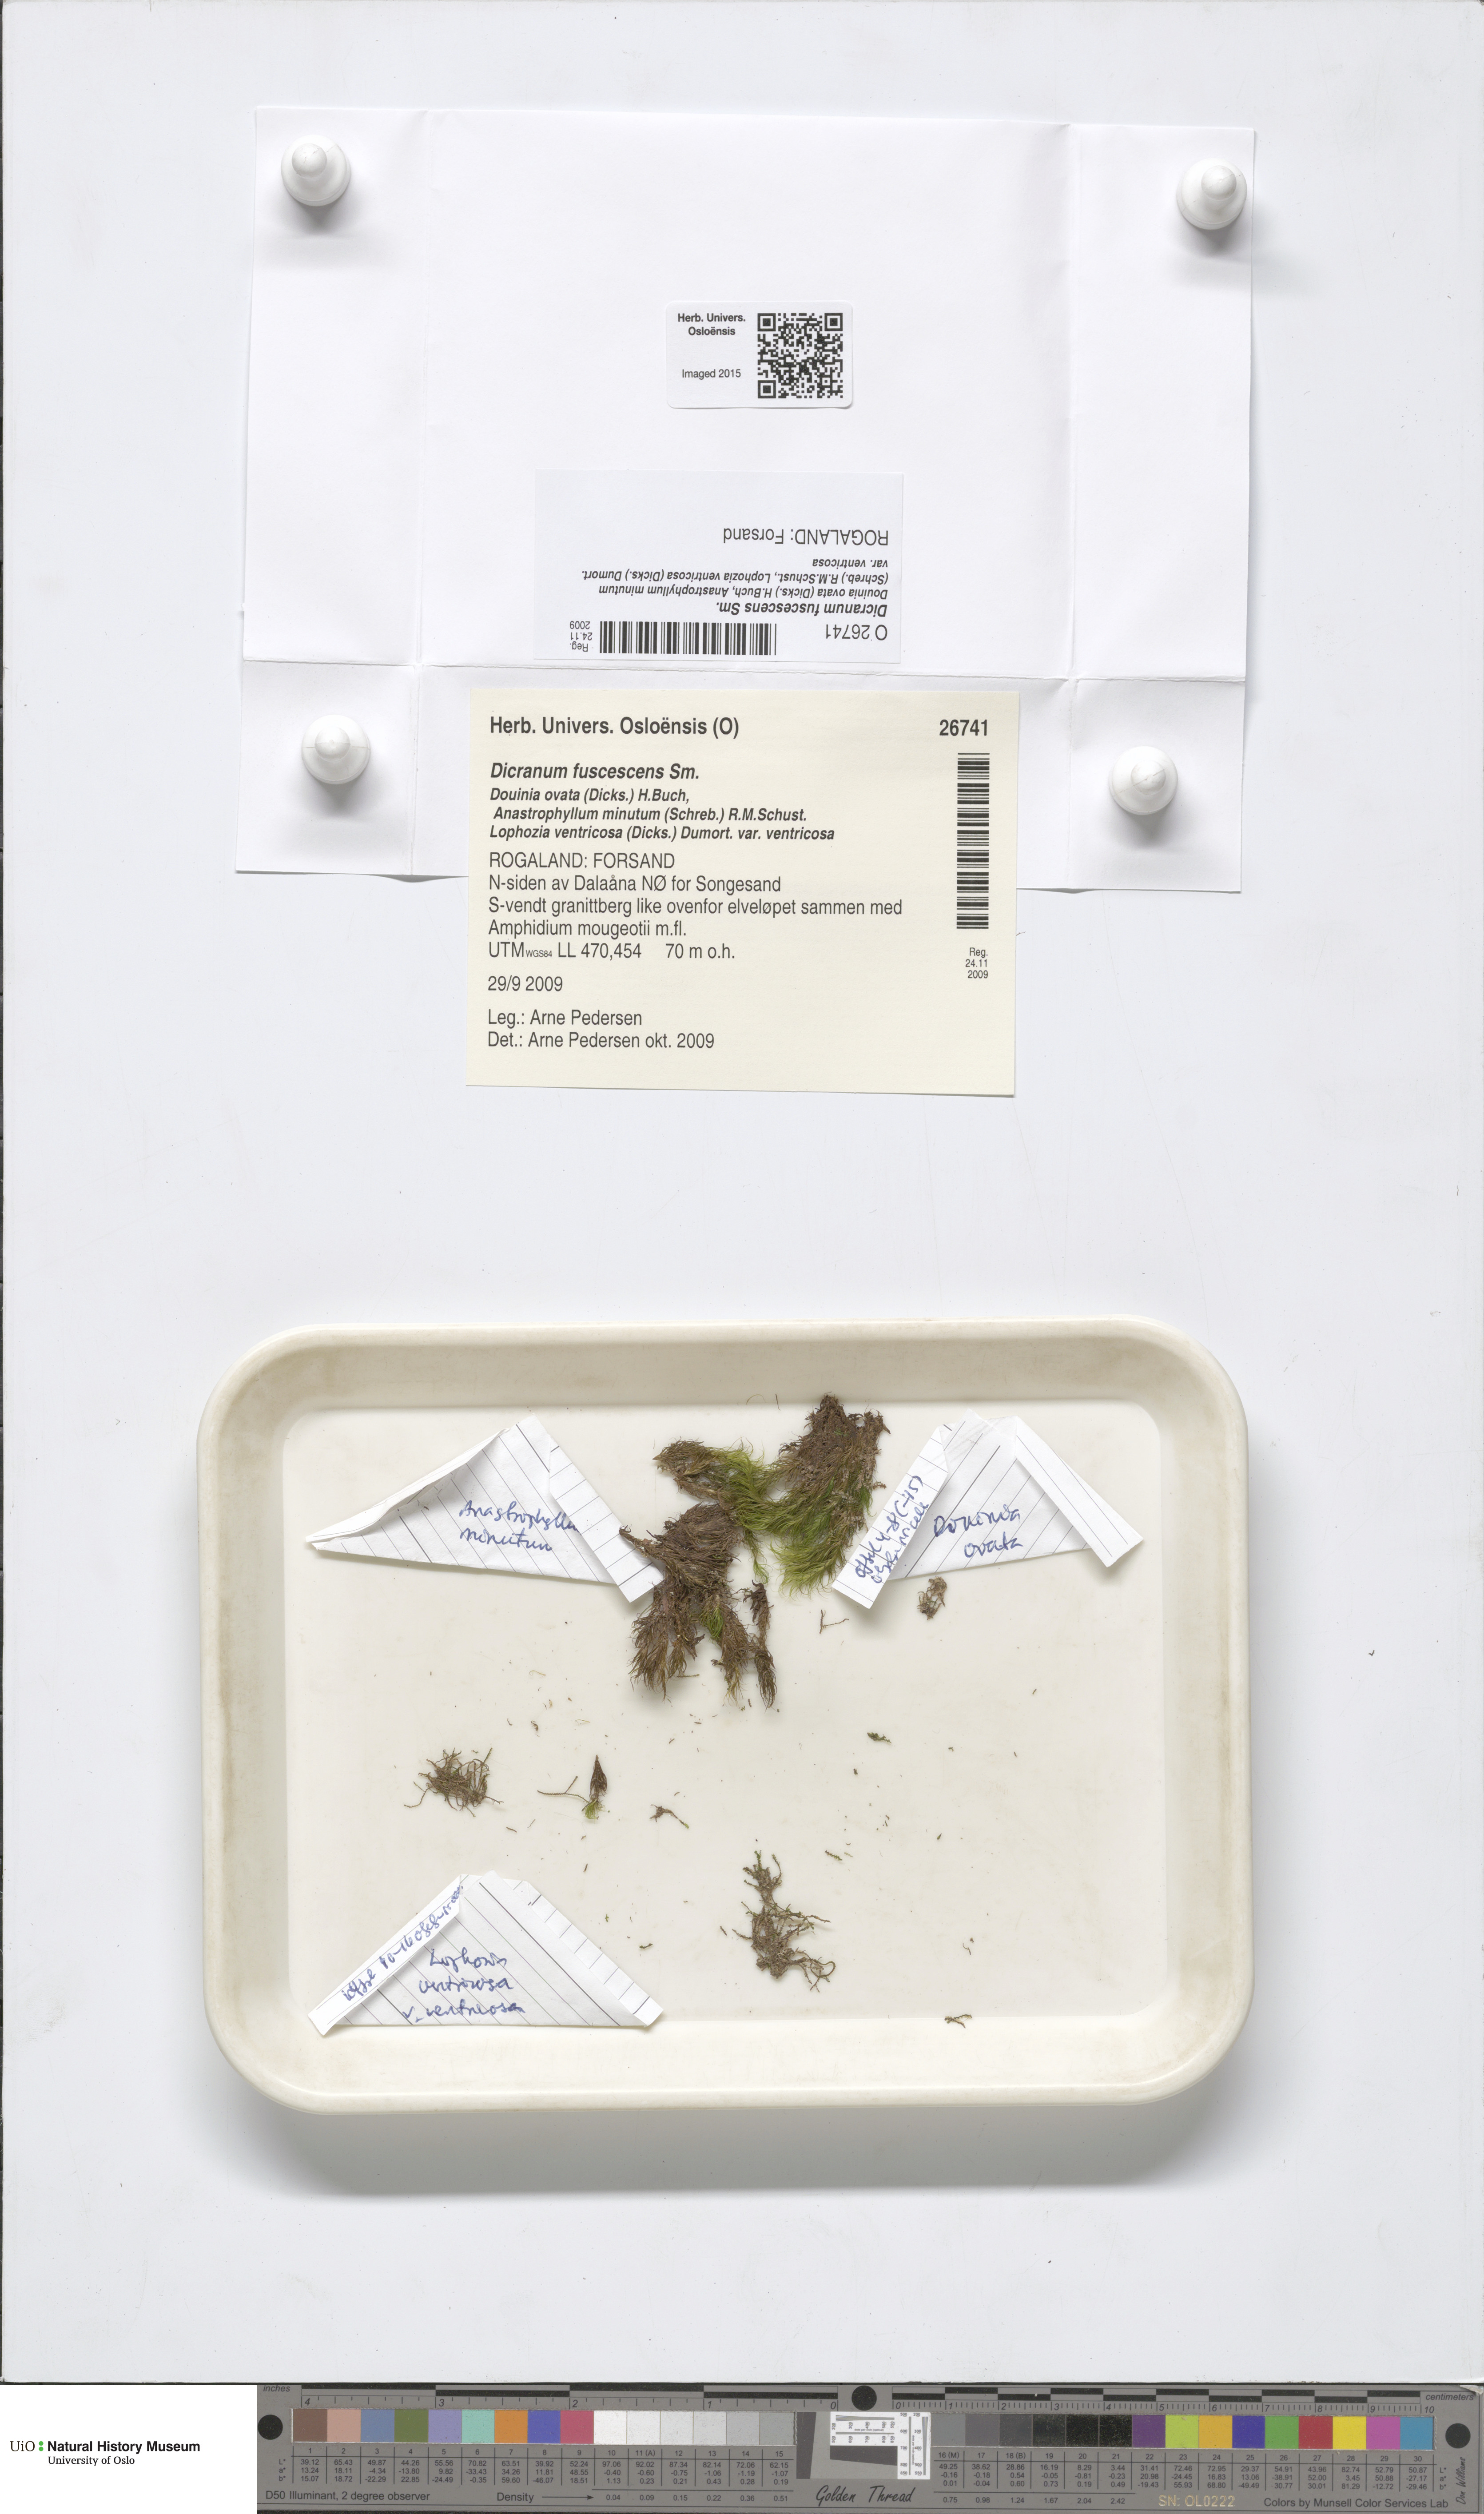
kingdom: Plantae
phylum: Bryophyta
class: Bryopsida
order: Dicranales
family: Dicranaceae
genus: Dicranum
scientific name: Dicranum fuscescens
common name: Curly heron's-bill moss
